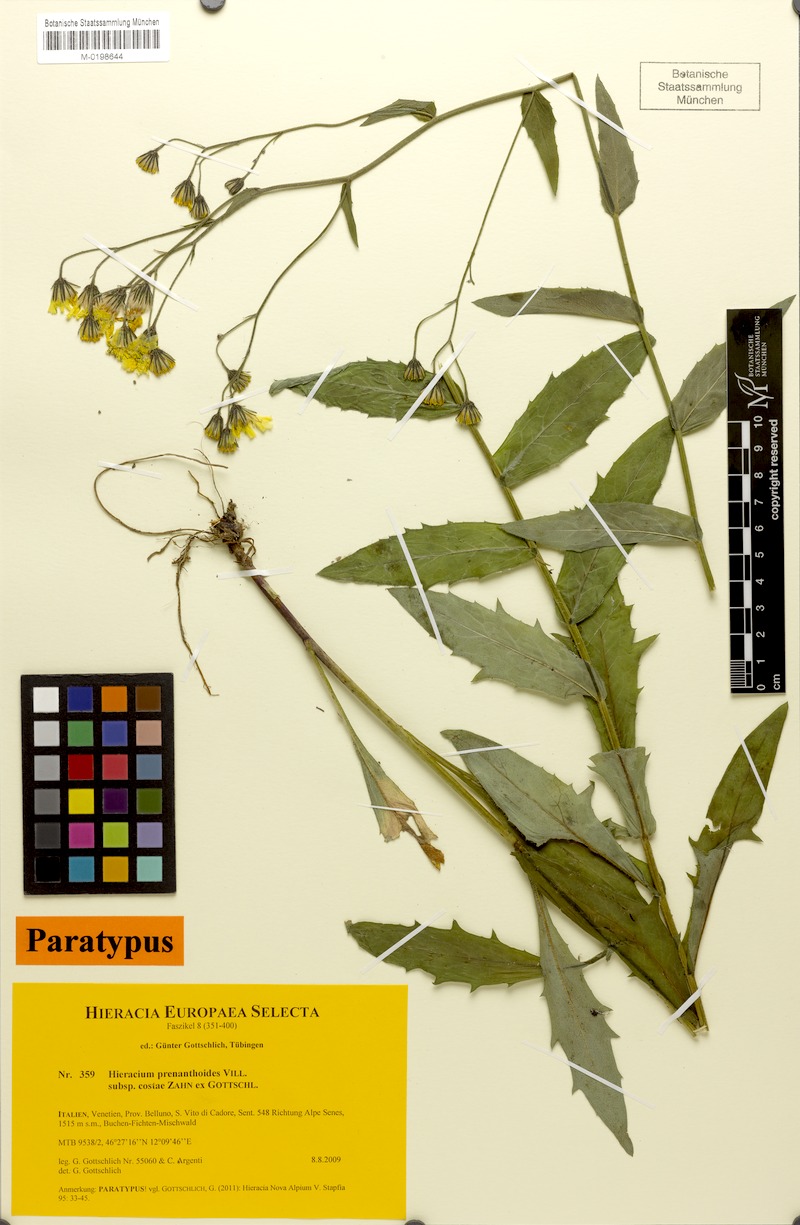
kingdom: Plantae
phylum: Tracheophyta
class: Magnoliopsida
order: Asterales
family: Asteraceae
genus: Hieracium
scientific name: Hieracium prenanthoides
